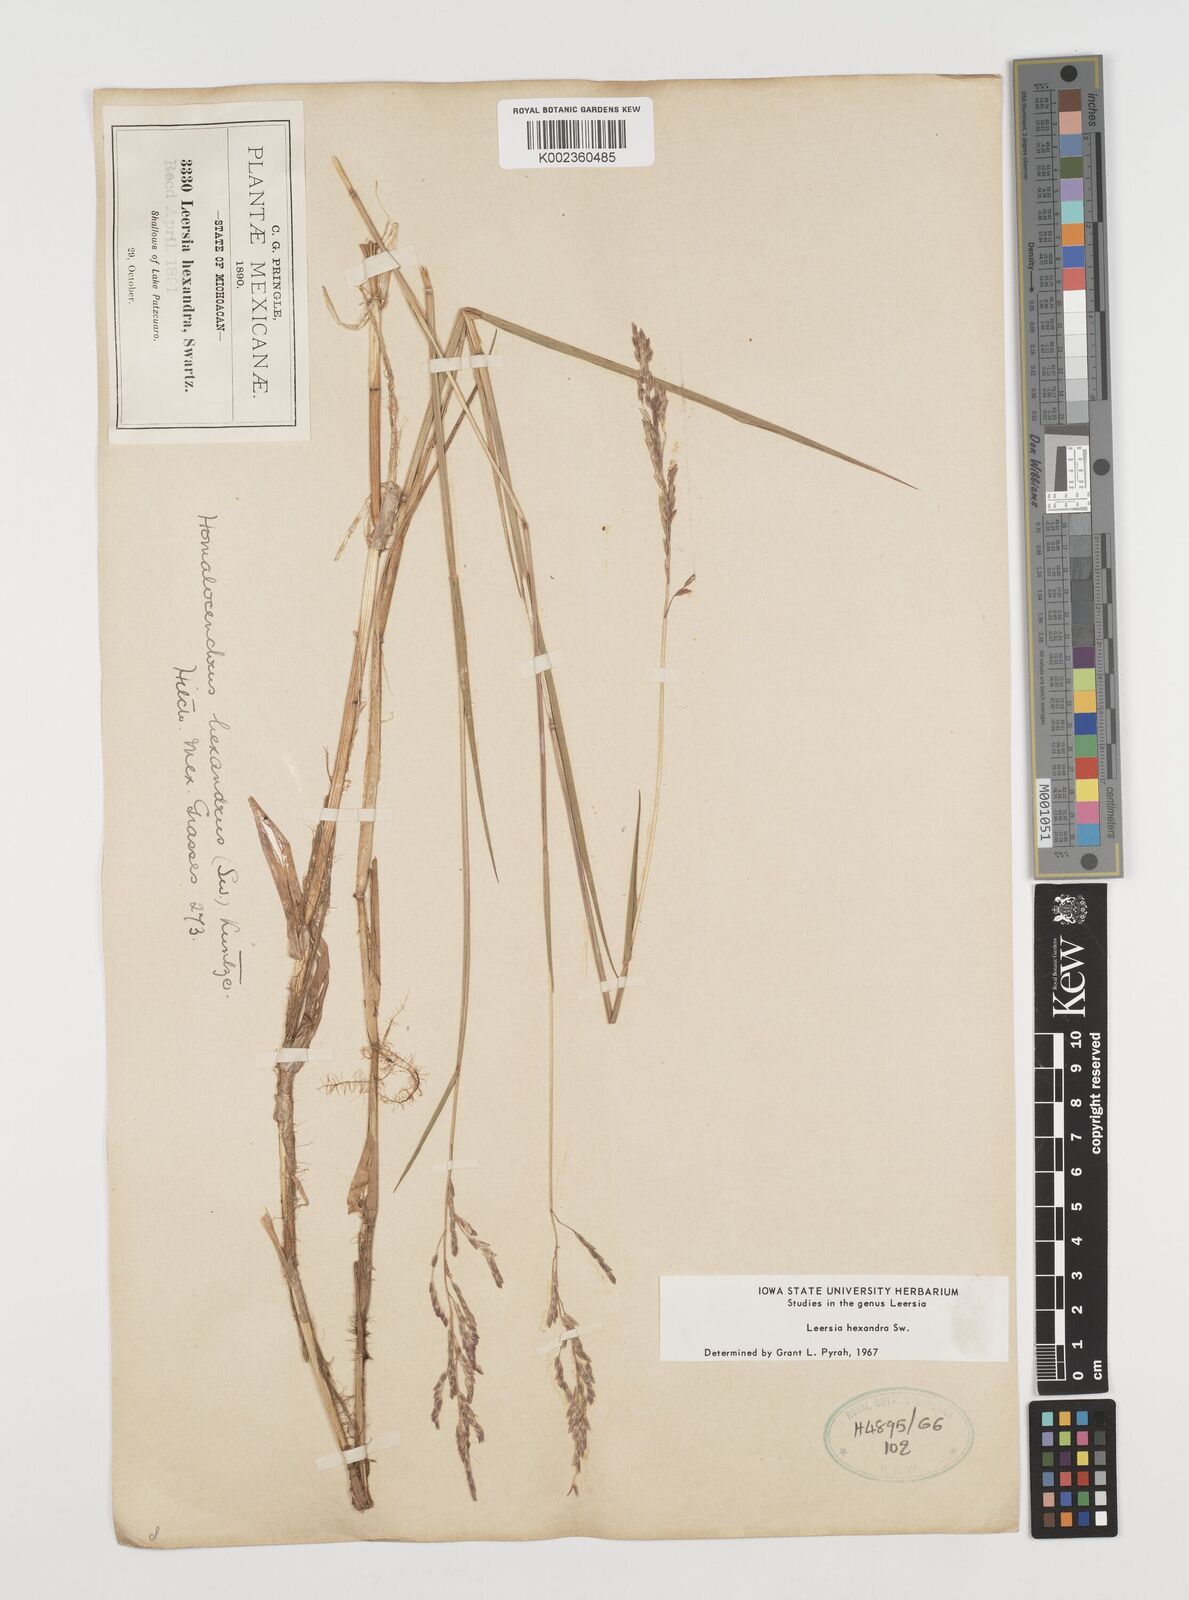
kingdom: Plantae
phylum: Tracheophyta
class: Liliopsida
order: Poales
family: Poaceae
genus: Leersia
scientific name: Leersia hexandra
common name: Southern cut grass
